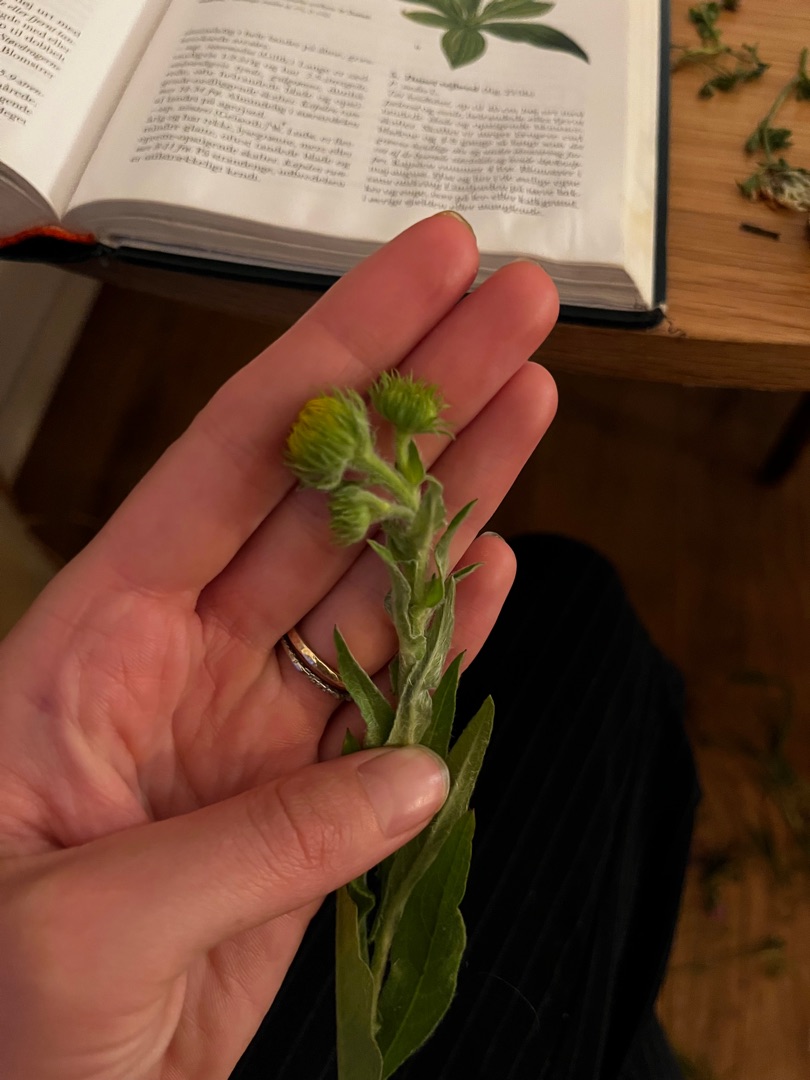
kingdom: Plantae
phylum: Tracheophyta
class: Magnoliopsida
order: Asterales
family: Asteraceae
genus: Pentanema
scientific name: Pentanema britannicum
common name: Soløje-alant
